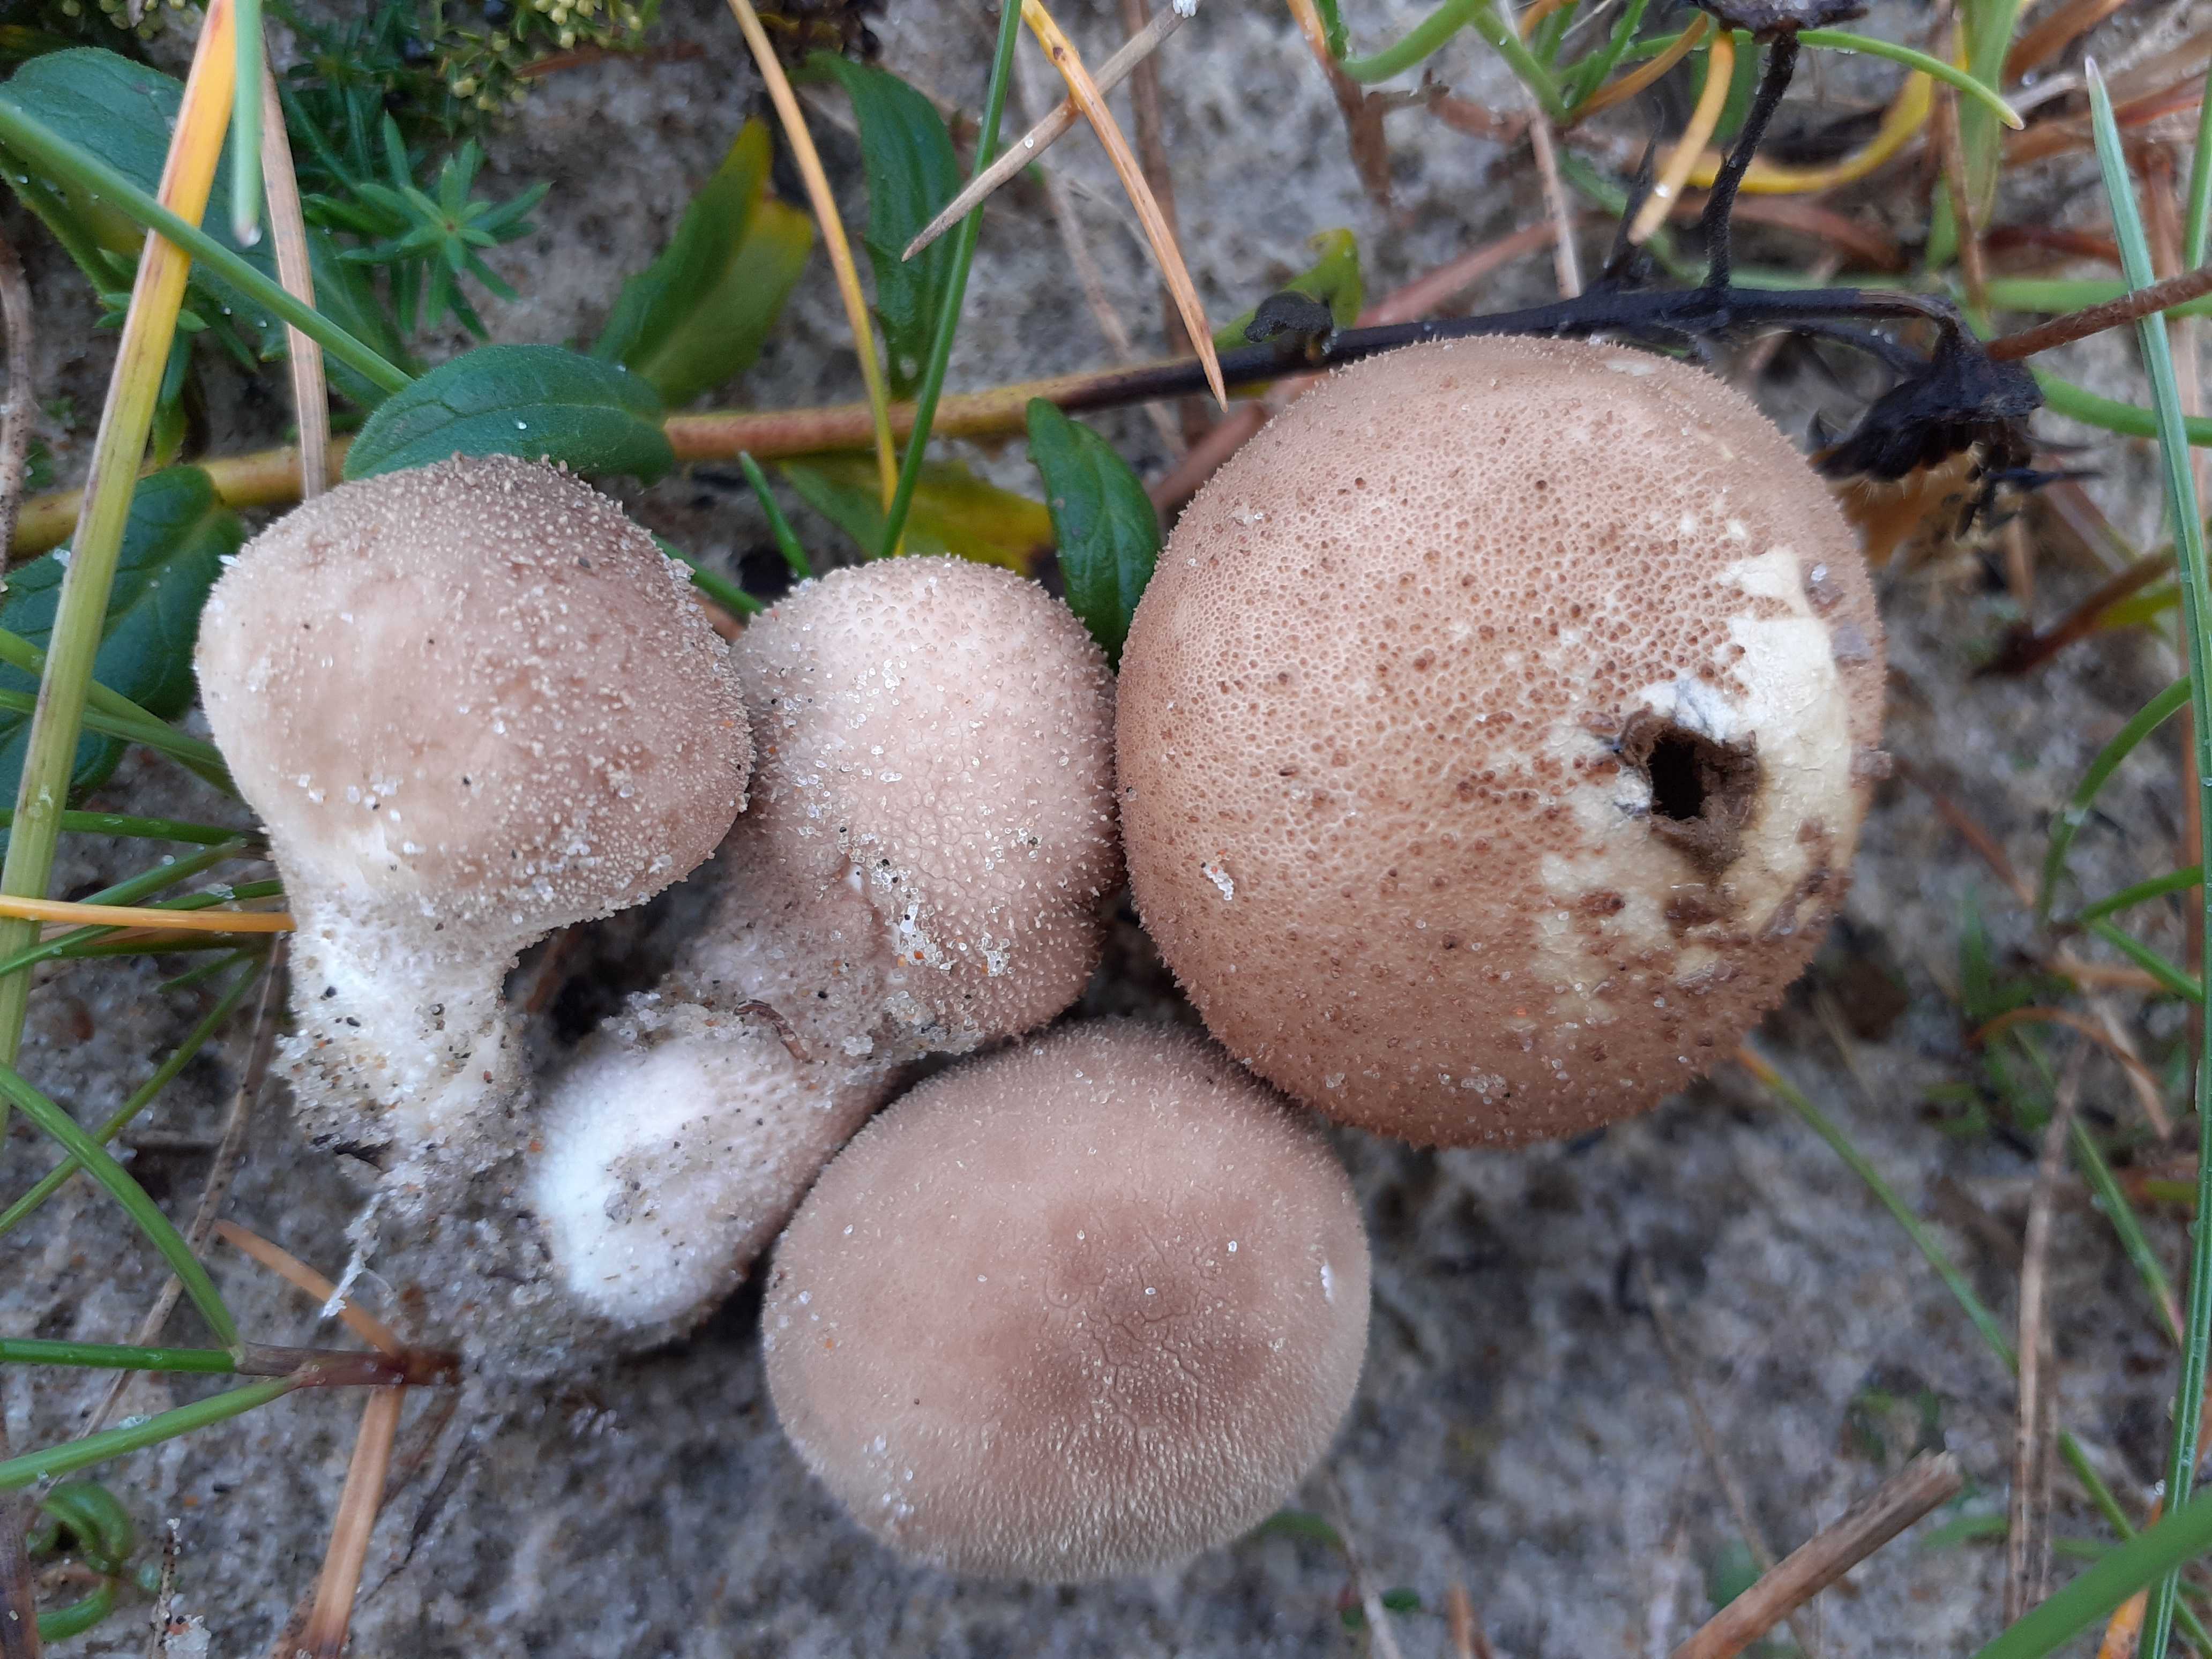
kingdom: Fungi
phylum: Basidiomycota
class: Agaricomycetes
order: Agaricales
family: Lycoperdaceae
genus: Lycoperdon
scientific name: Lycoperdon lividum
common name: mark-støvbold
